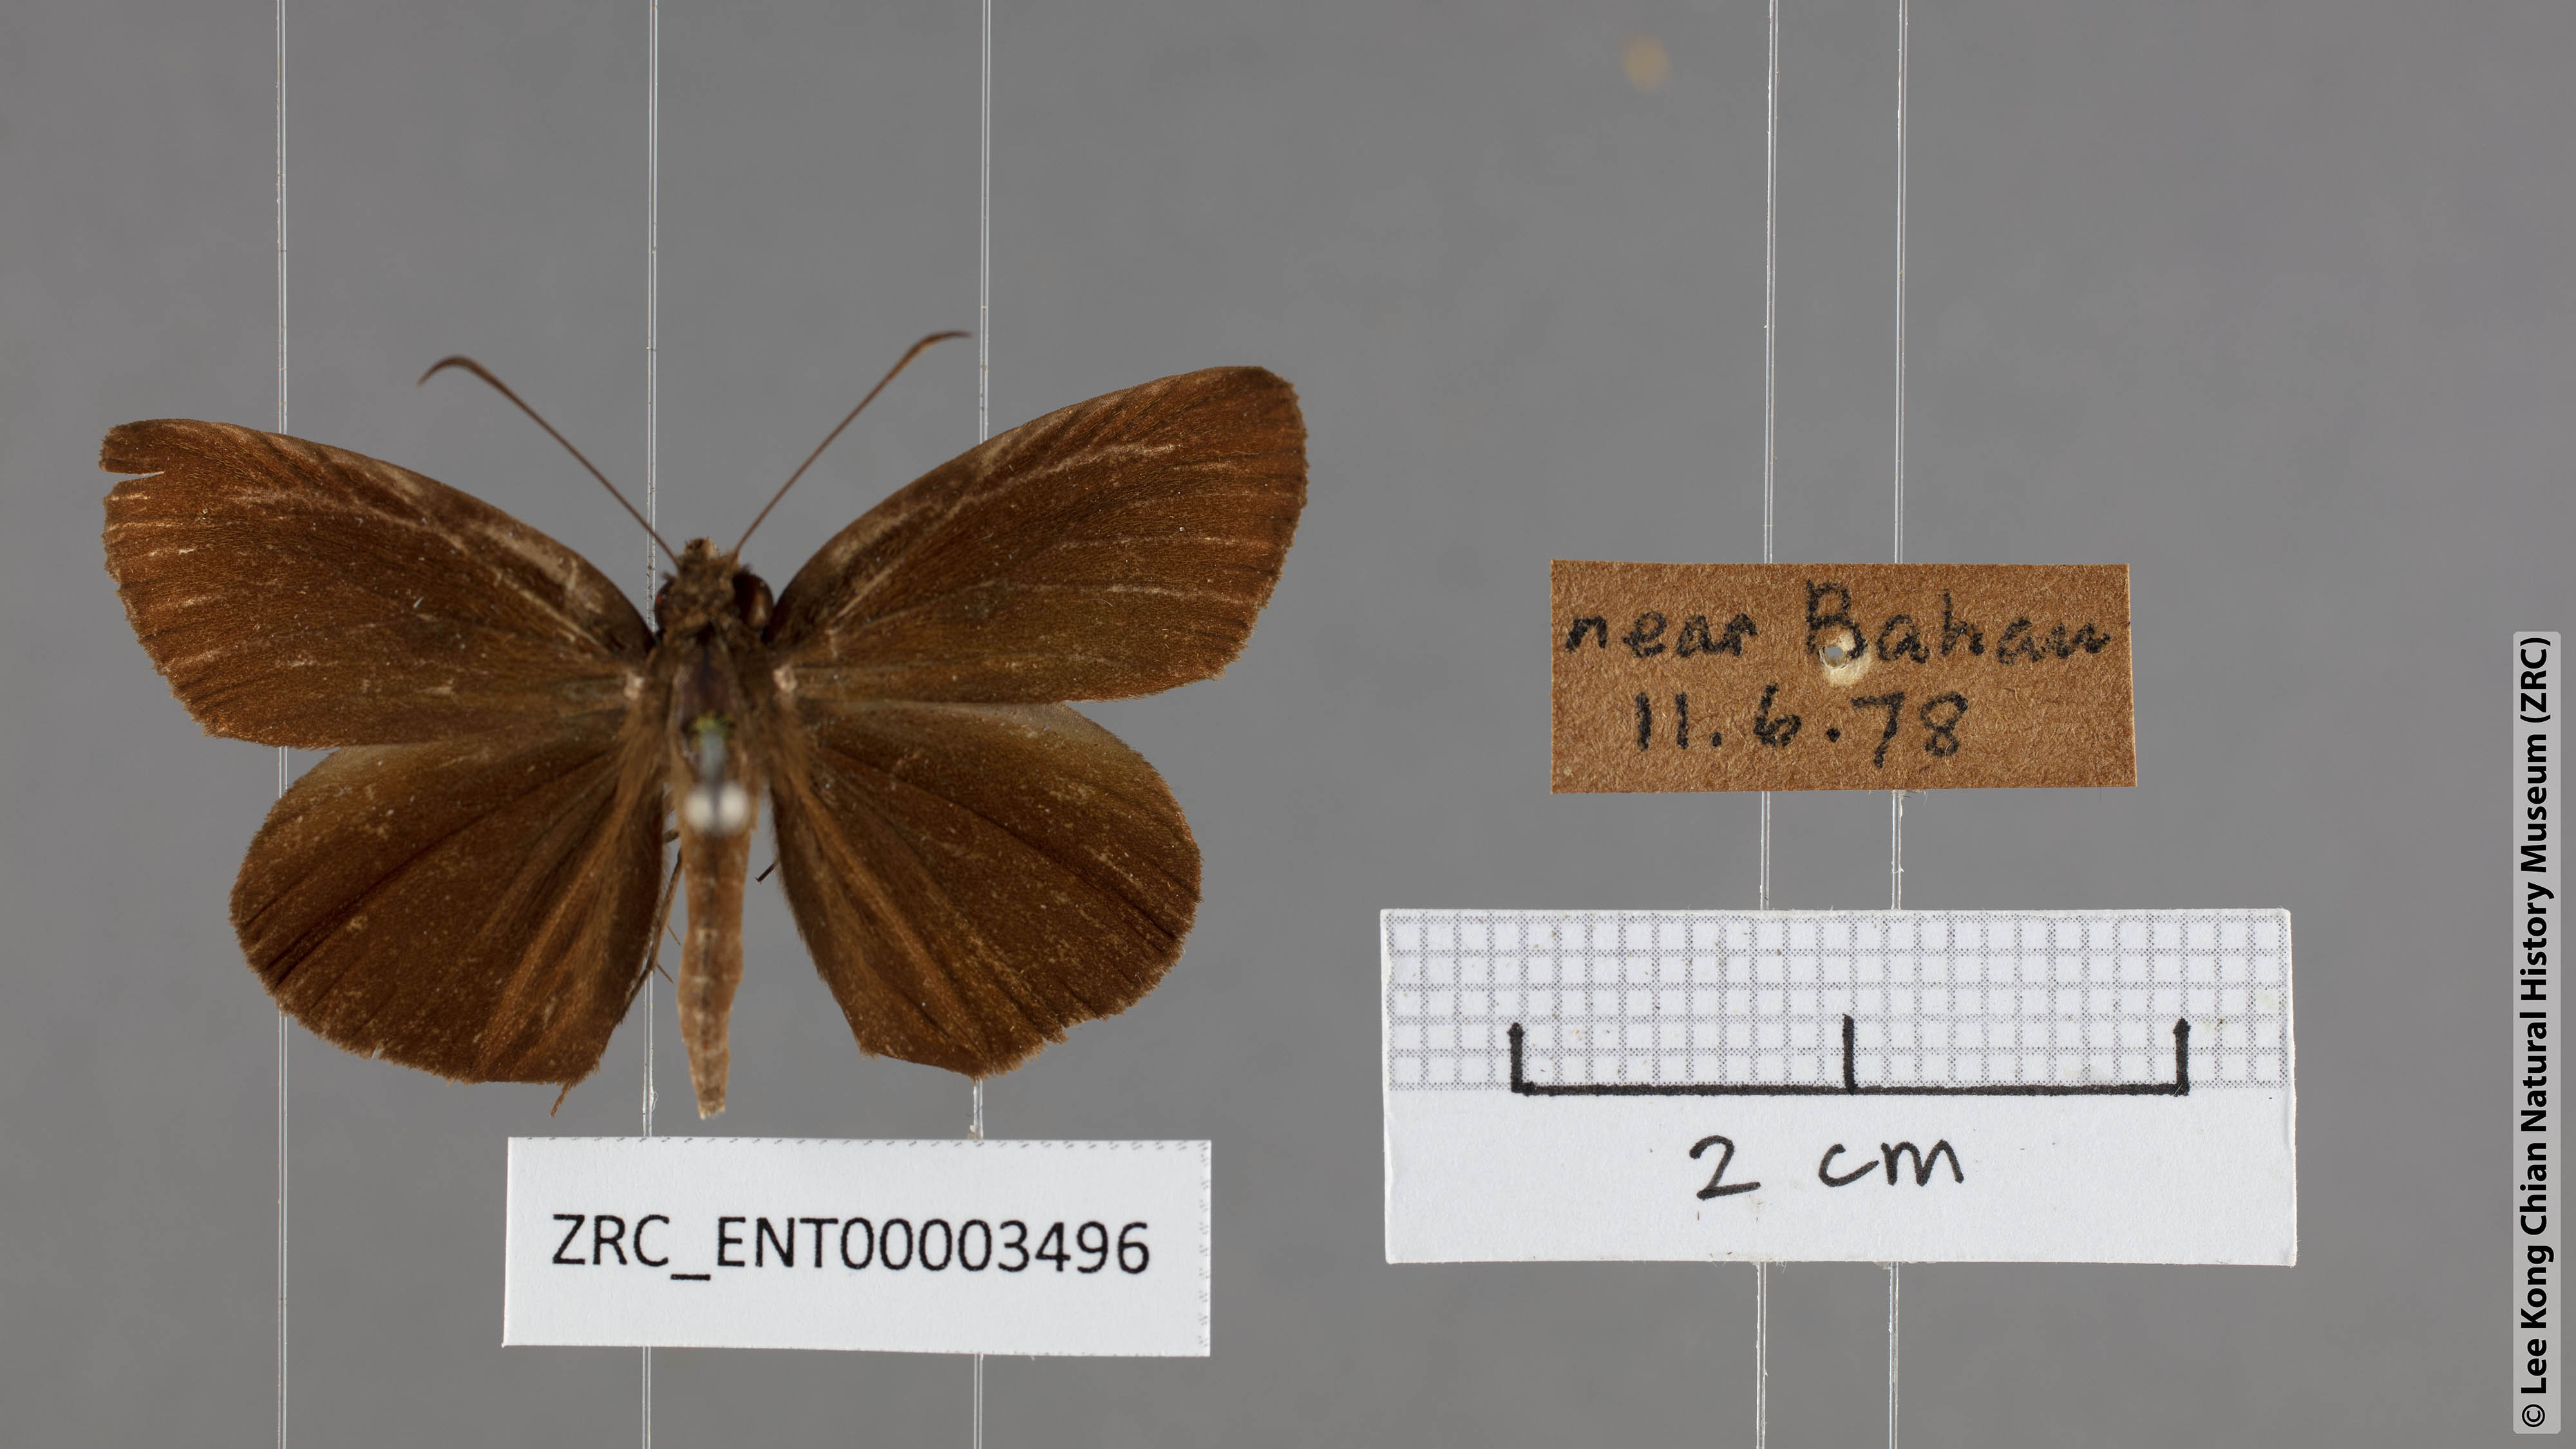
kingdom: Animalia
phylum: Arthropoda
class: Insecta
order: Lepidoptera
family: Hesperiidae
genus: Psolos
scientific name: Psolos fuligo
